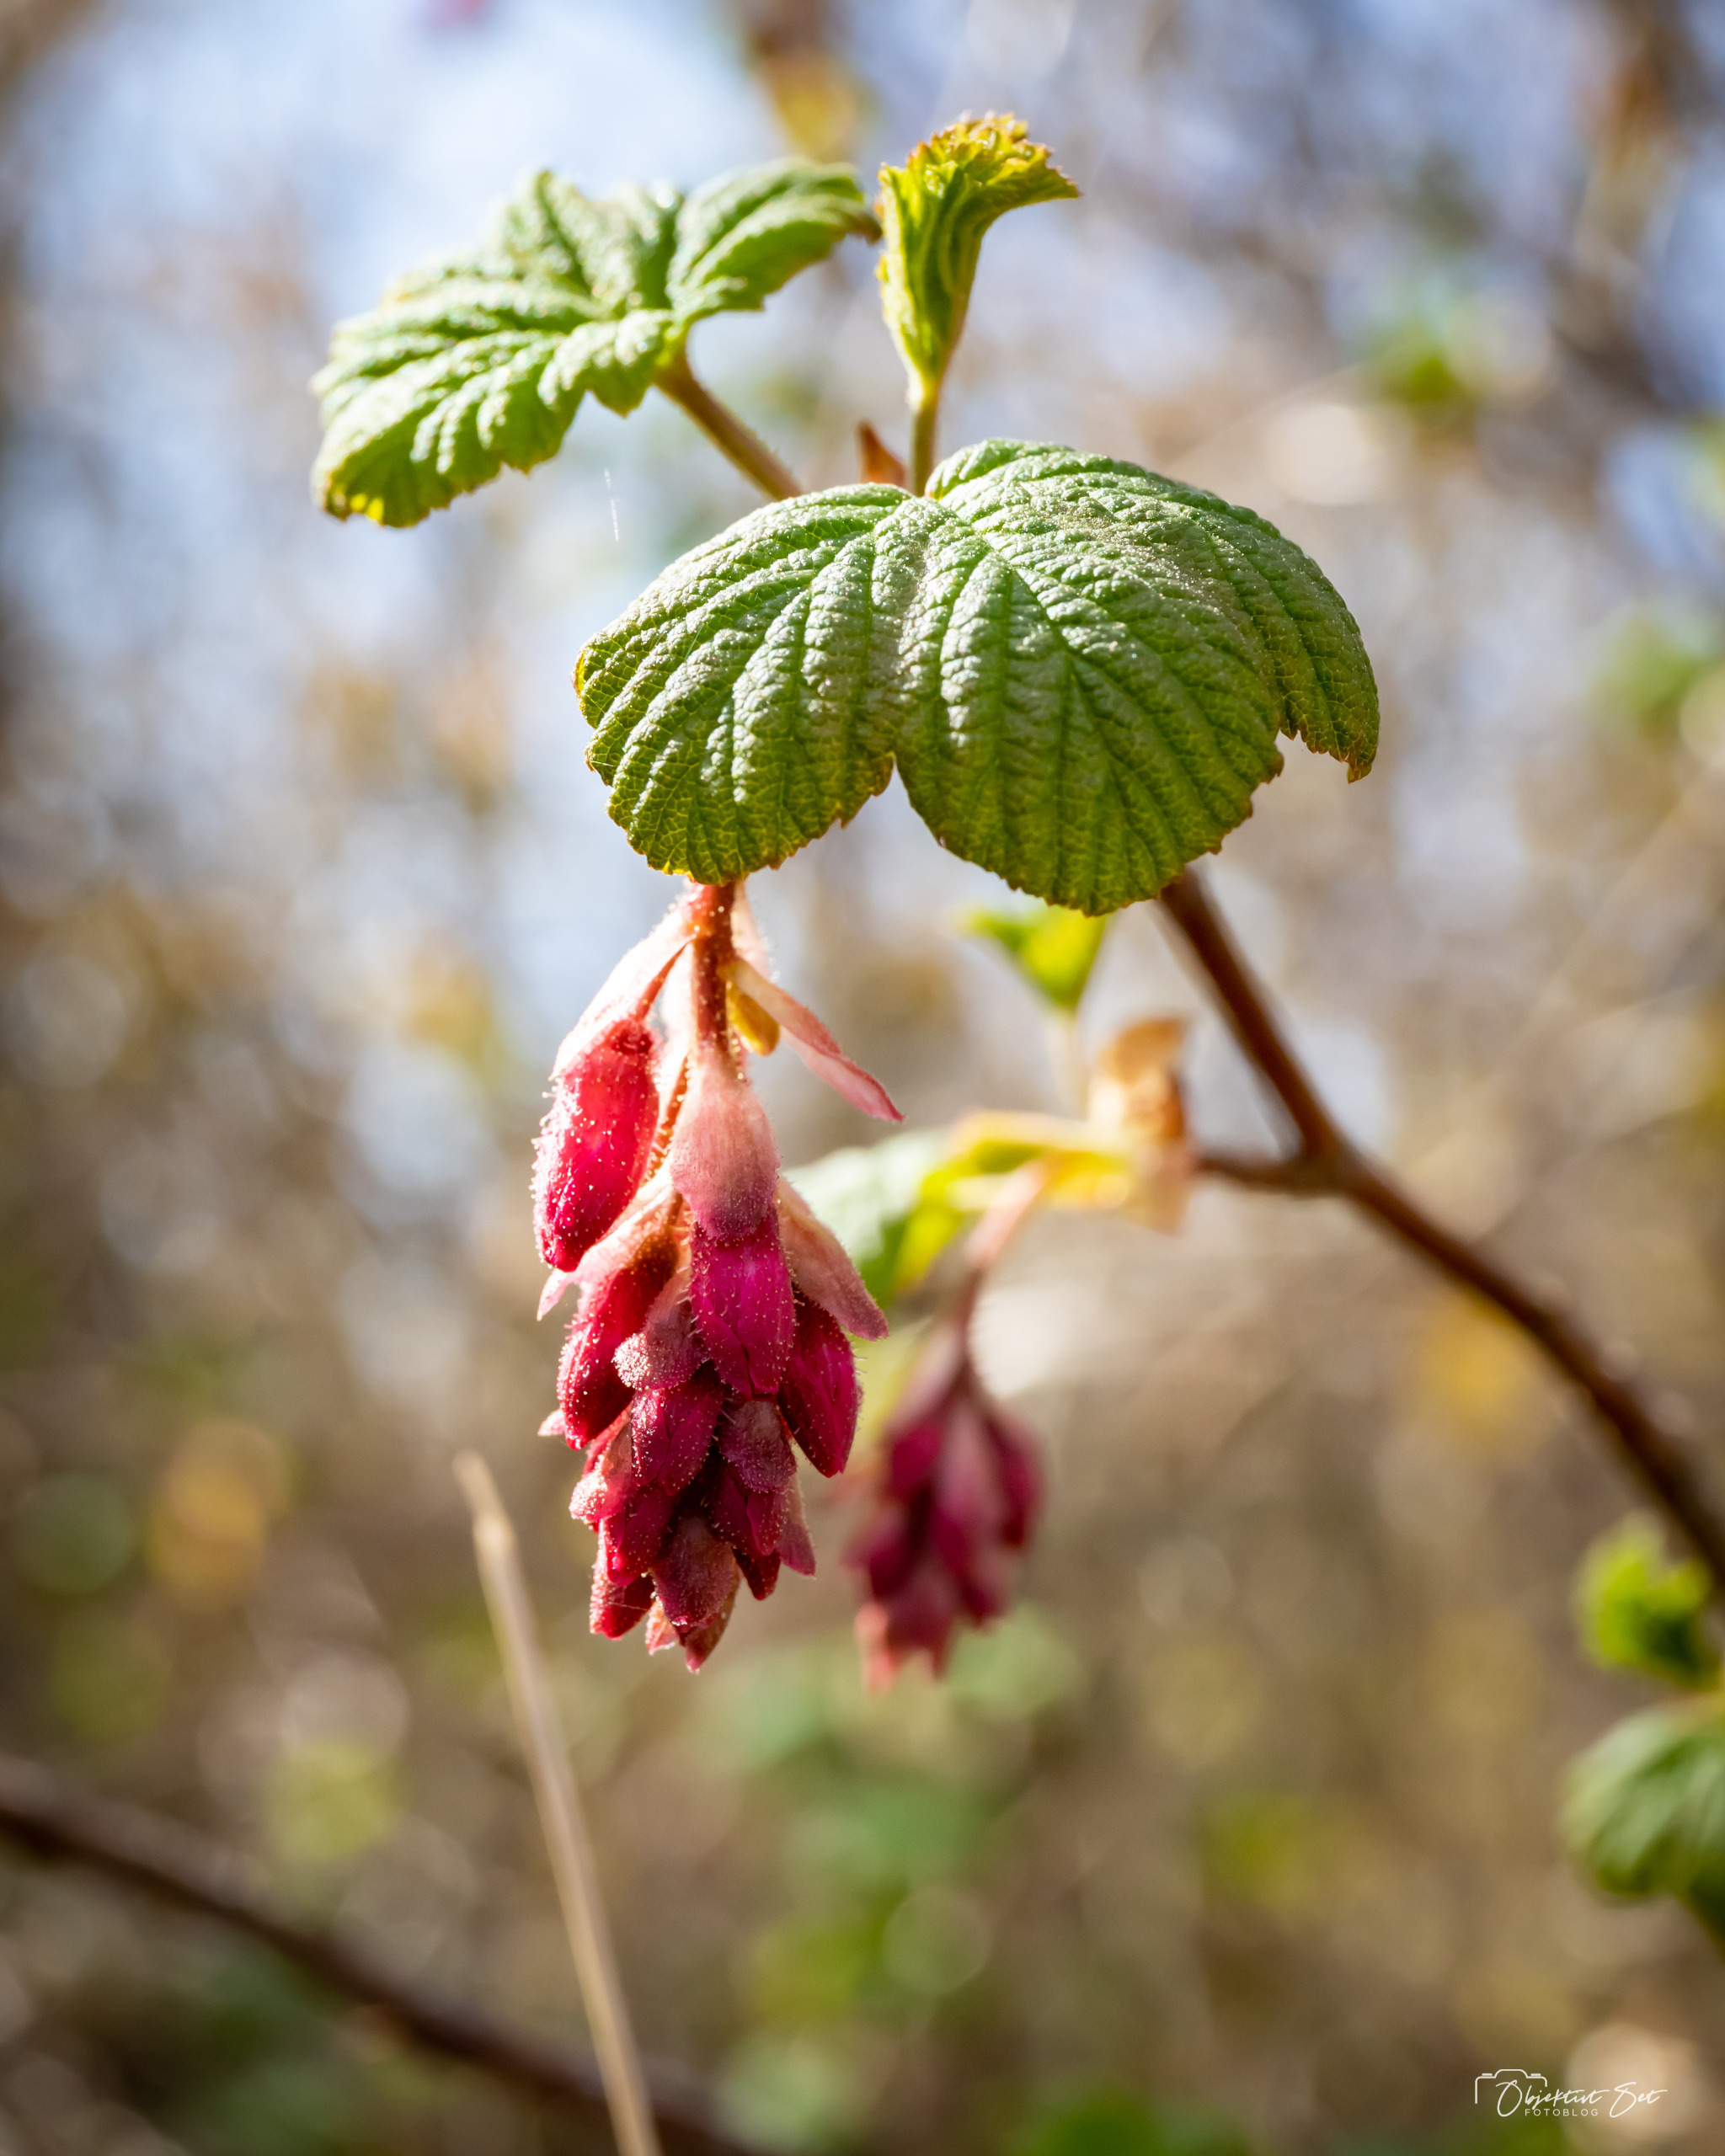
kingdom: Plantae
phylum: Tracheophyta
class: Magnoliopsida
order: Saxifragales
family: Grossulariaceae
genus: Ribes
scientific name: Ribes sanguineum
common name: Blod-ribs
